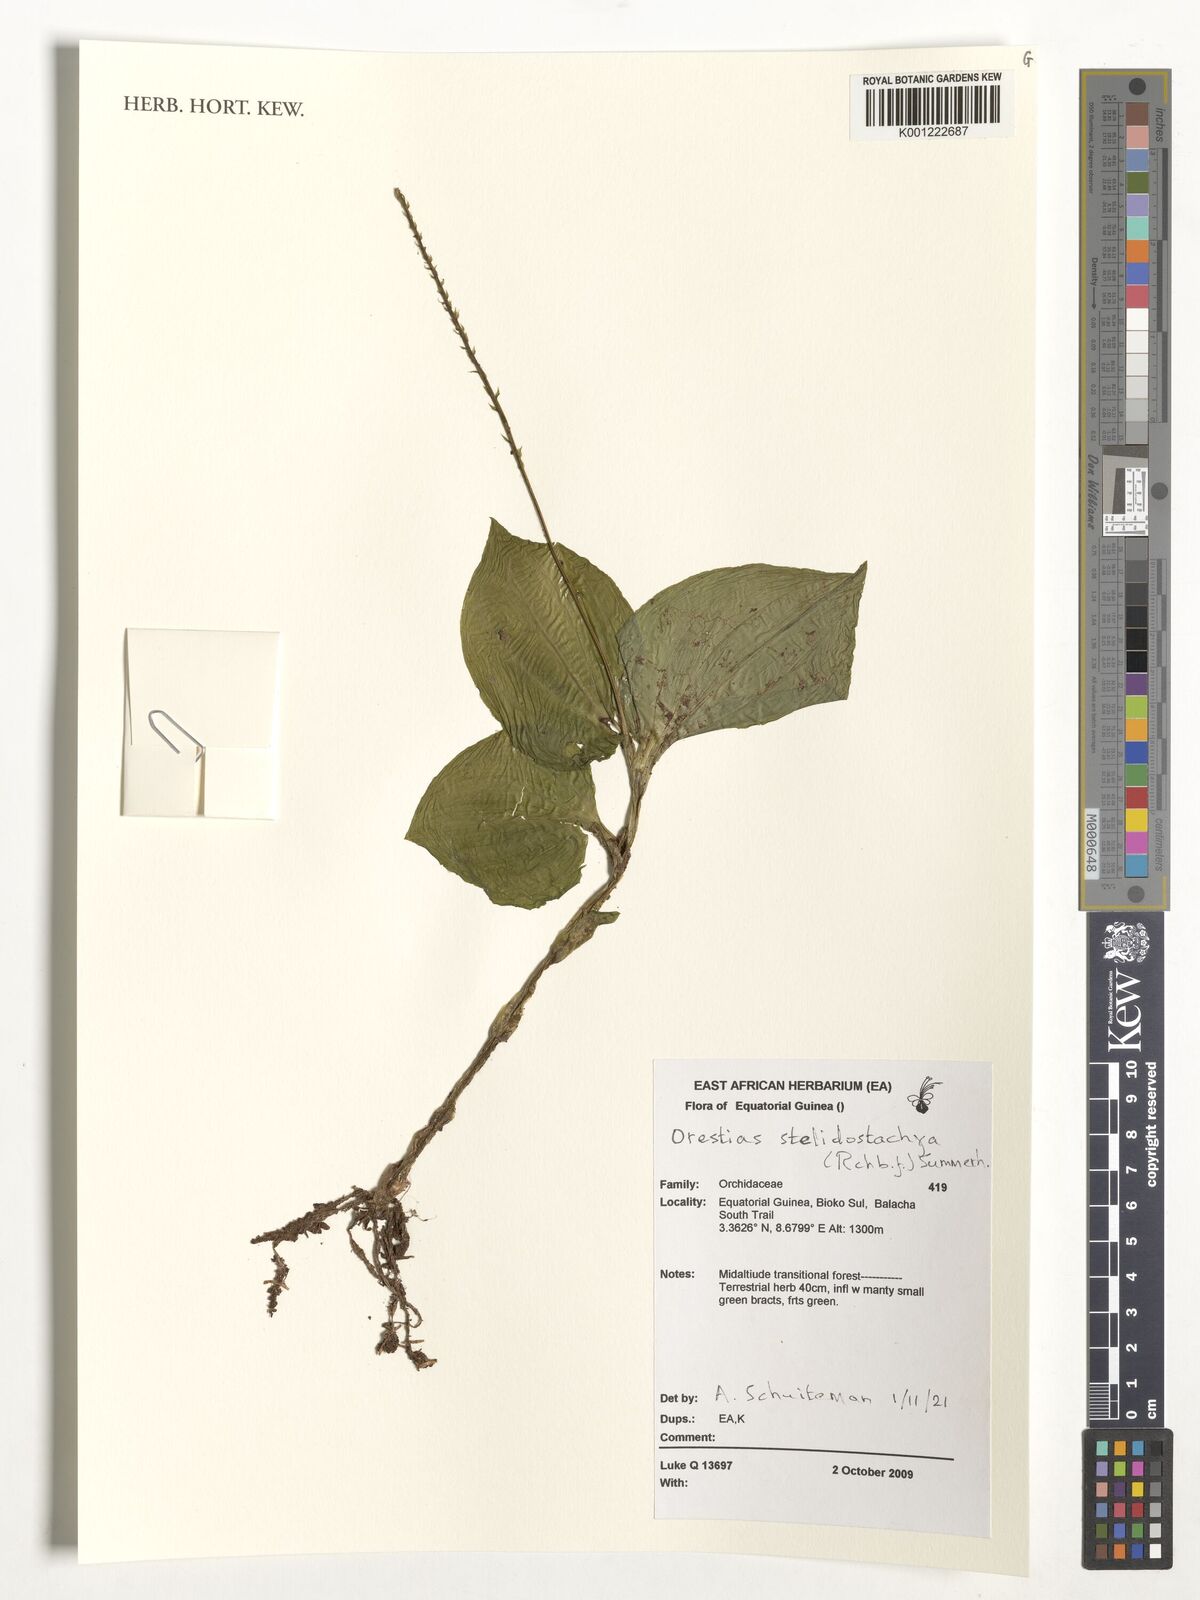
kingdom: Plantae
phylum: Tracheophyta
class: Liliopsida
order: Asparagales
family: Orchidaceae
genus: Orestias
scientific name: Orestias stelidostachya
